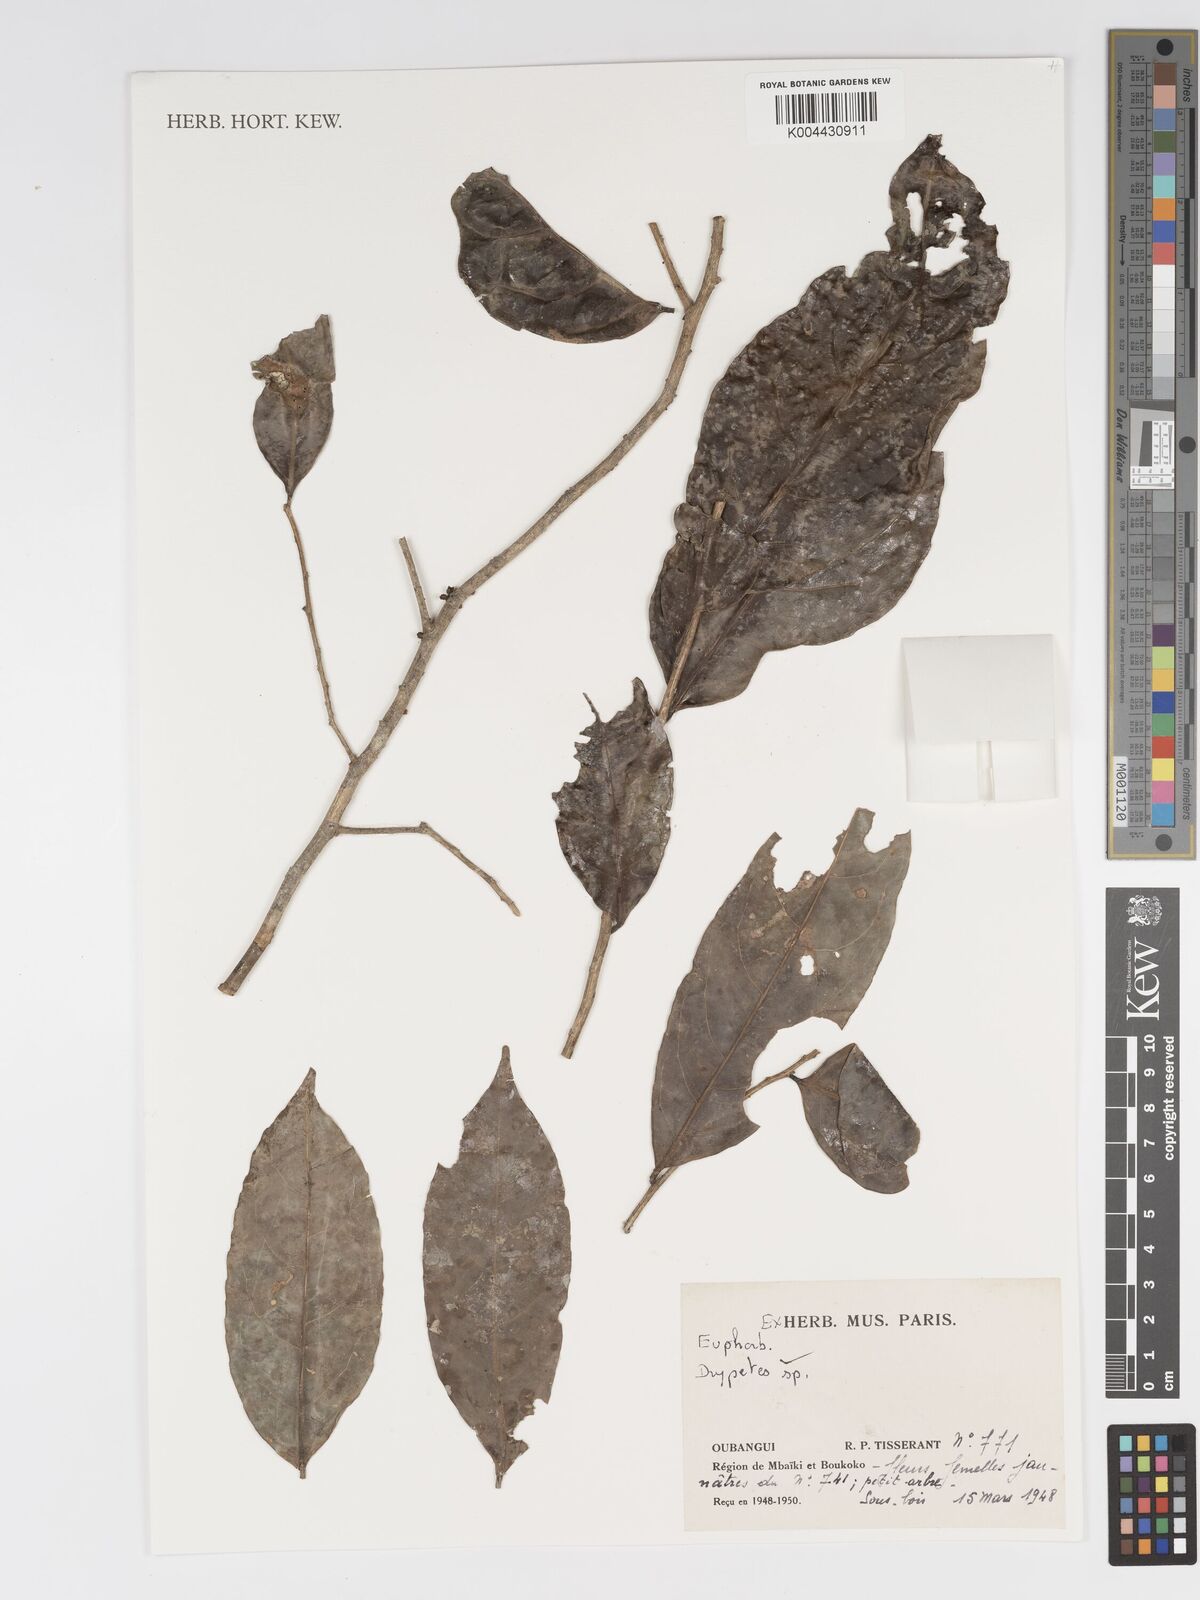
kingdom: Plantae
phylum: Tracheophyta
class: Magnoliopsida
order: Malpighiales
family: Putranjivaceae
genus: Drypetes
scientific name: Drypetes calvescens
